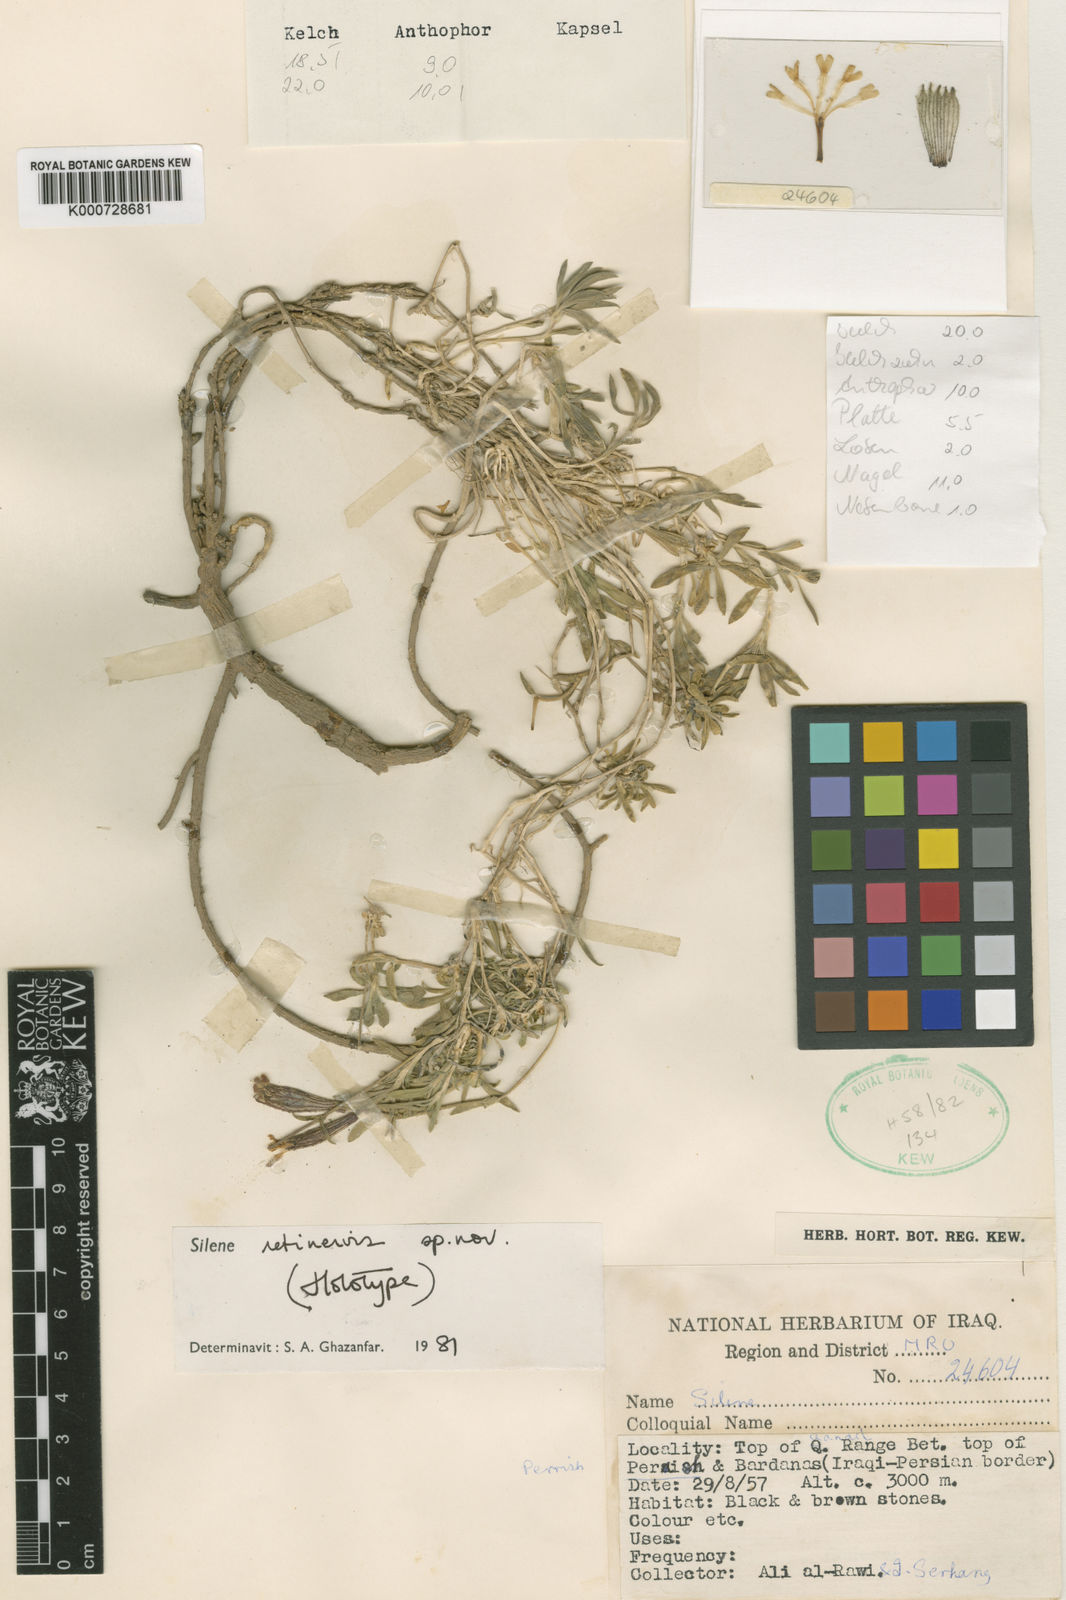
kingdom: Plantae
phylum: Tracheophyta
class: Magnoliopsida
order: Caryophyllales
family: Caryophyllaceae
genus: Silene
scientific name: Silene retinervis
